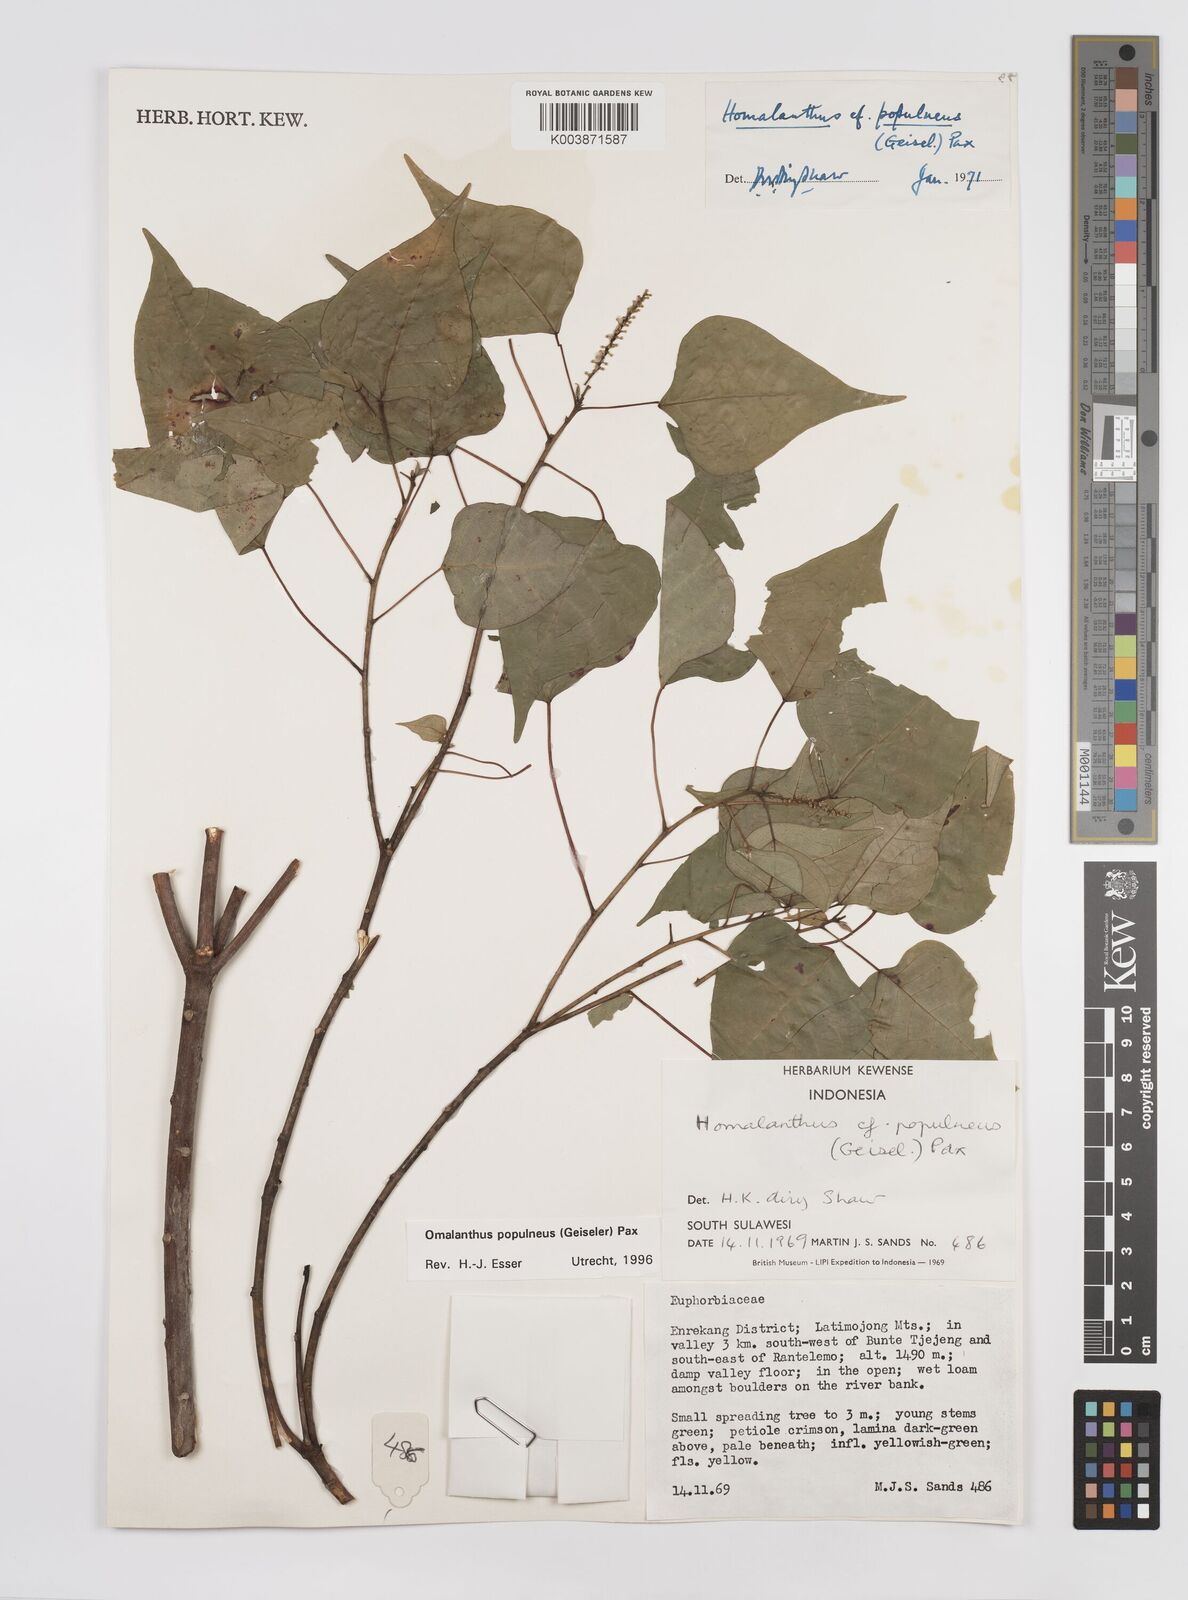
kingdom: Plantae
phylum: Tracheophyta
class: Magnoliopsida
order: Malpighiales
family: Euphorbiaceae
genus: Homalanthus
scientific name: Homalanthus populneus
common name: Spurge
